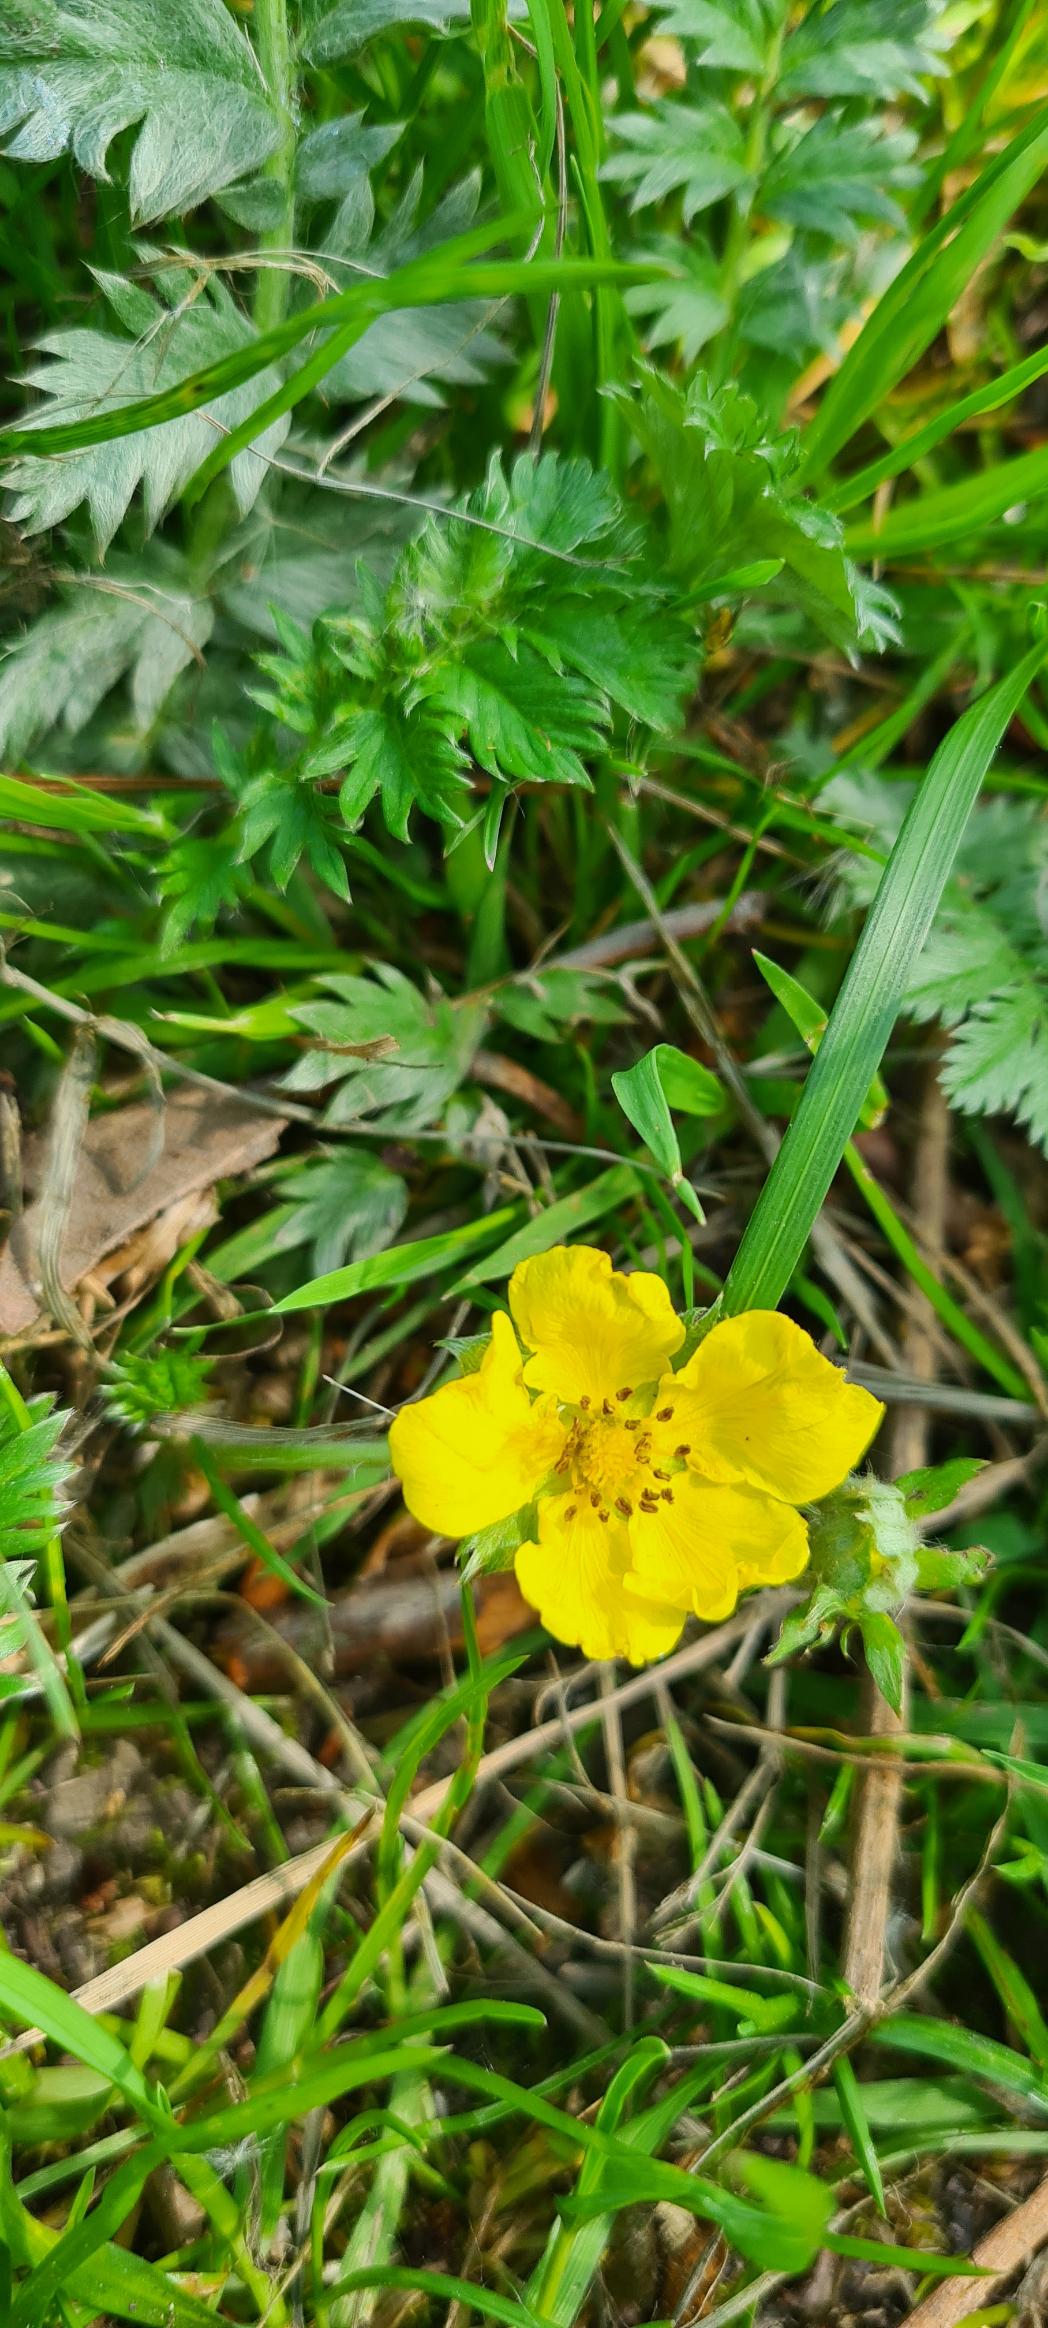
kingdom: Plantae
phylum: Tracheophyta
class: Magnoliopsida
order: Rosales
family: Rosaceae
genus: Argentina
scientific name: Argentina anserina
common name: Gåsepotentil
